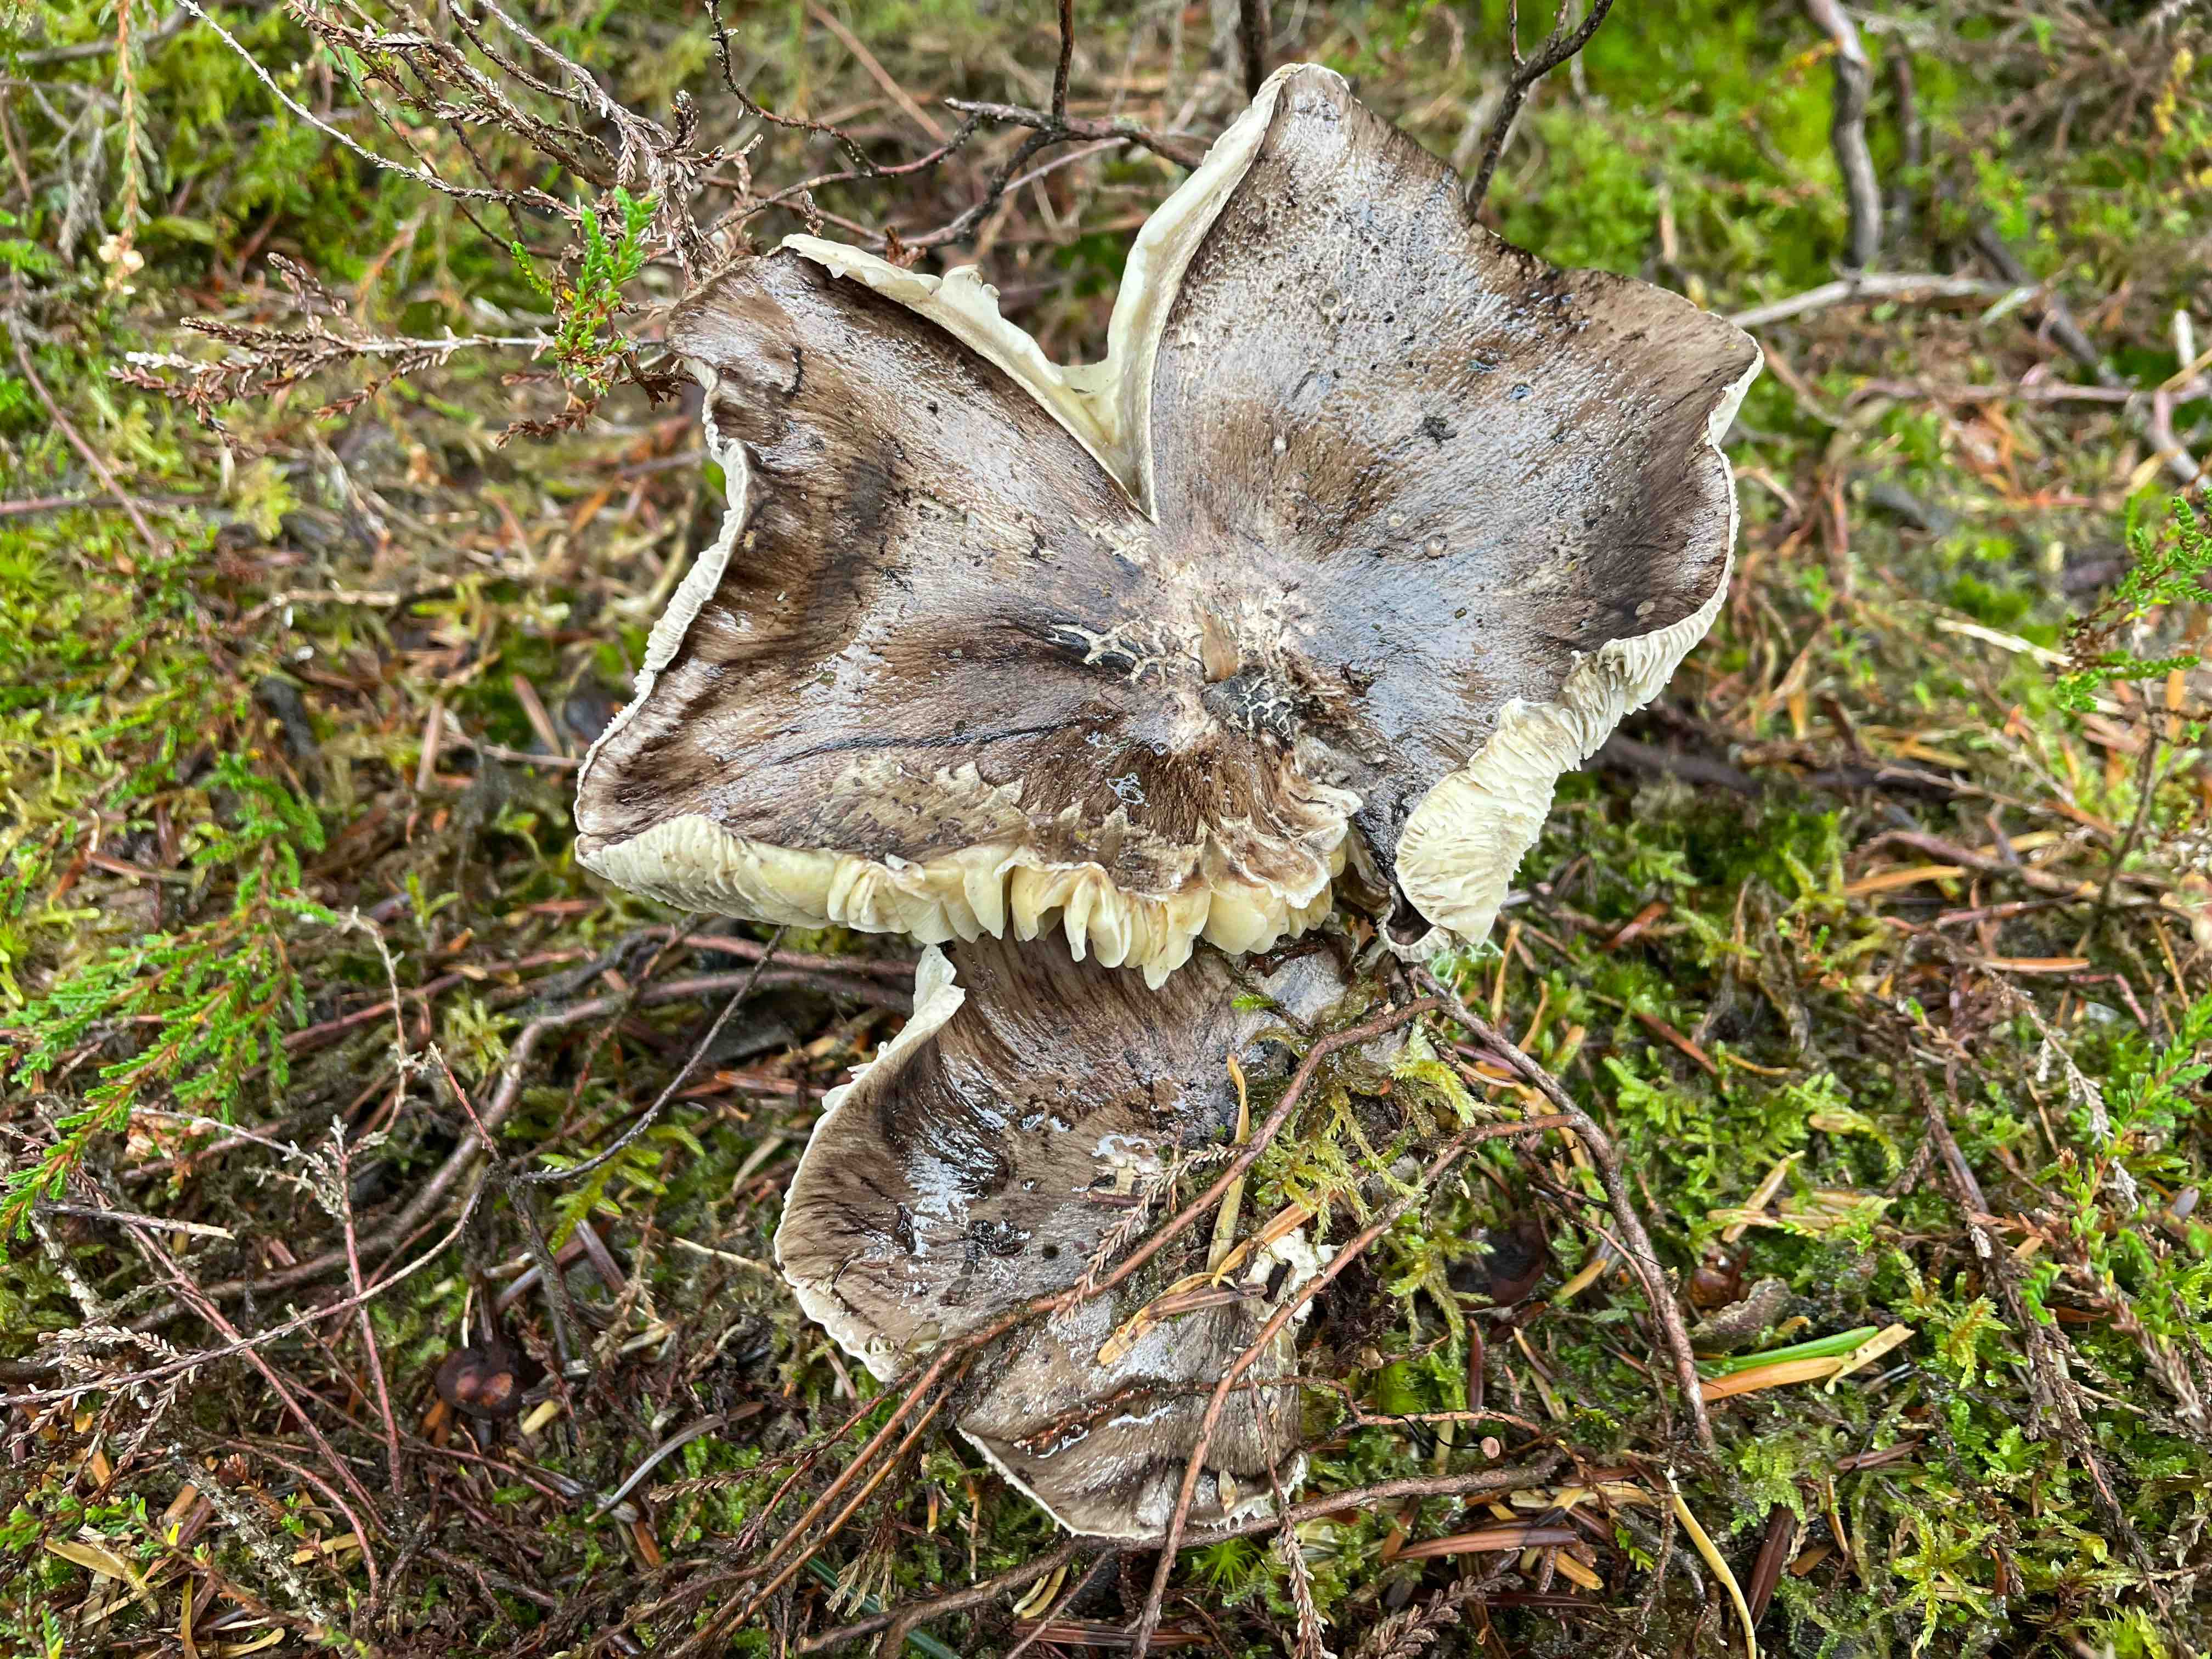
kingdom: Fungi
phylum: Basidiomycota
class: Agaricomycetes
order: Agaricales
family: Tricholomataceae
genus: Tricholoma
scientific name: Tricholoma portentosum
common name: grå ridderhat
